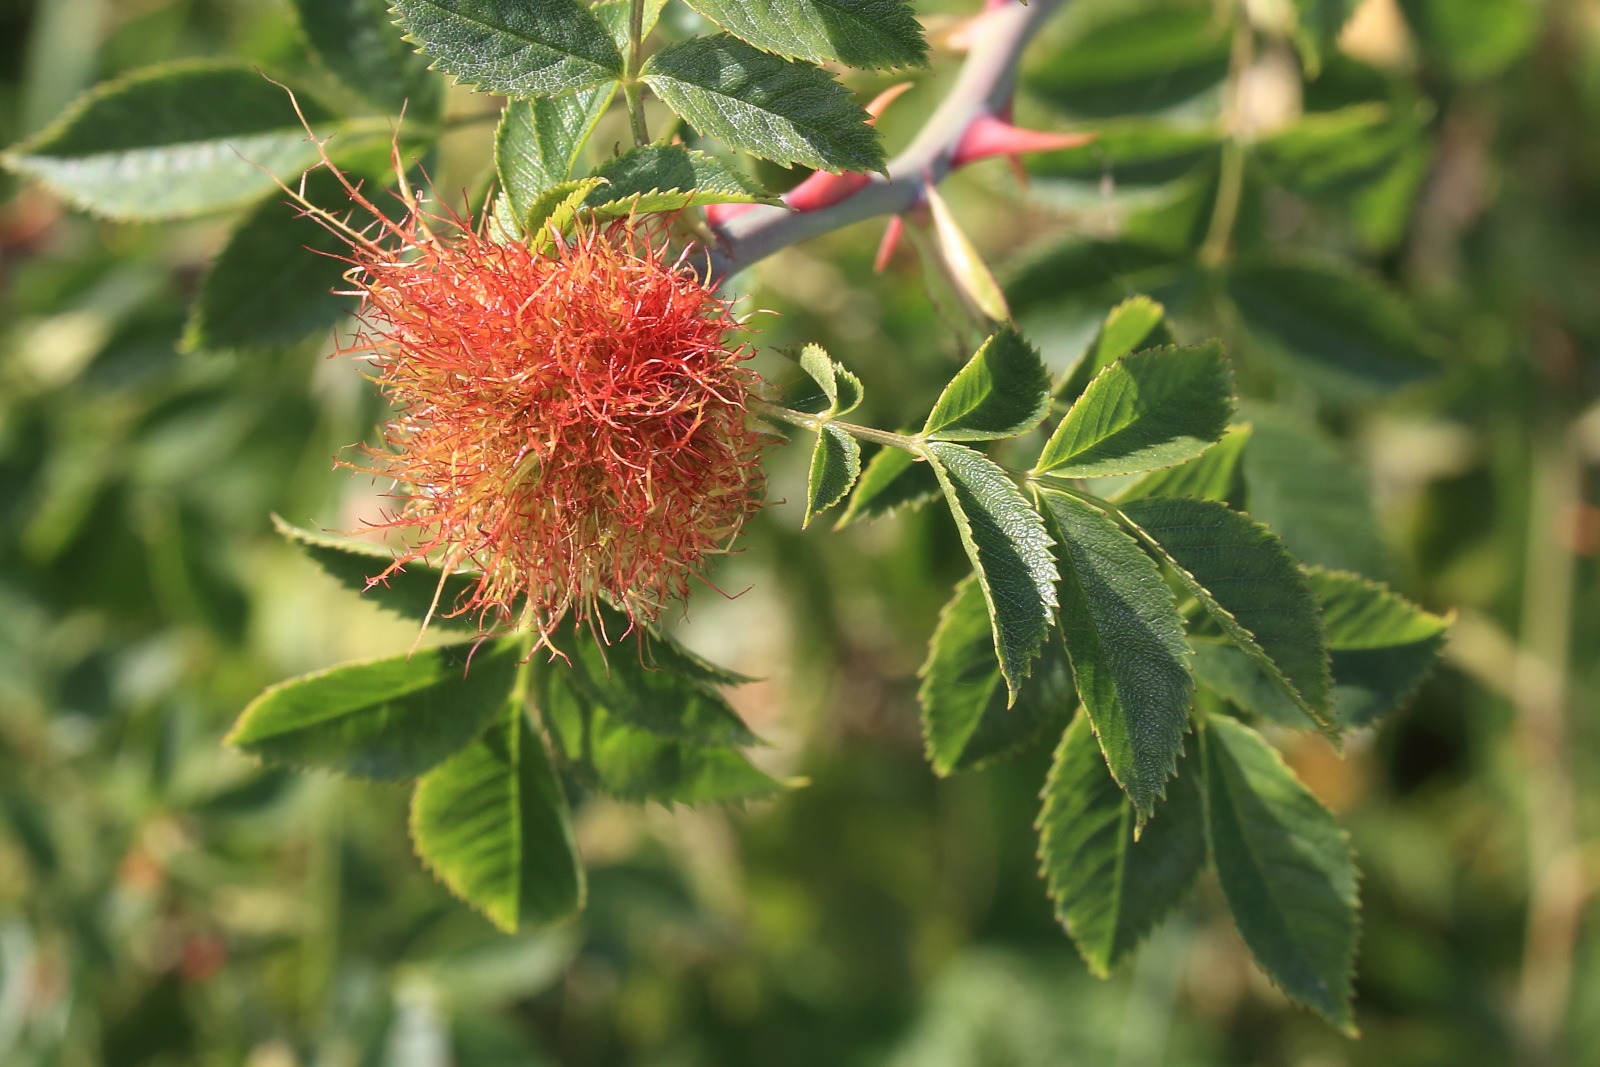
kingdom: Animalia
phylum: Arthropoda
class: Insecta
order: Hymenoptera
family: Cynipidae
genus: Diplolepis
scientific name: Diplolepis rosae
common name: Bedeguargalhveps
